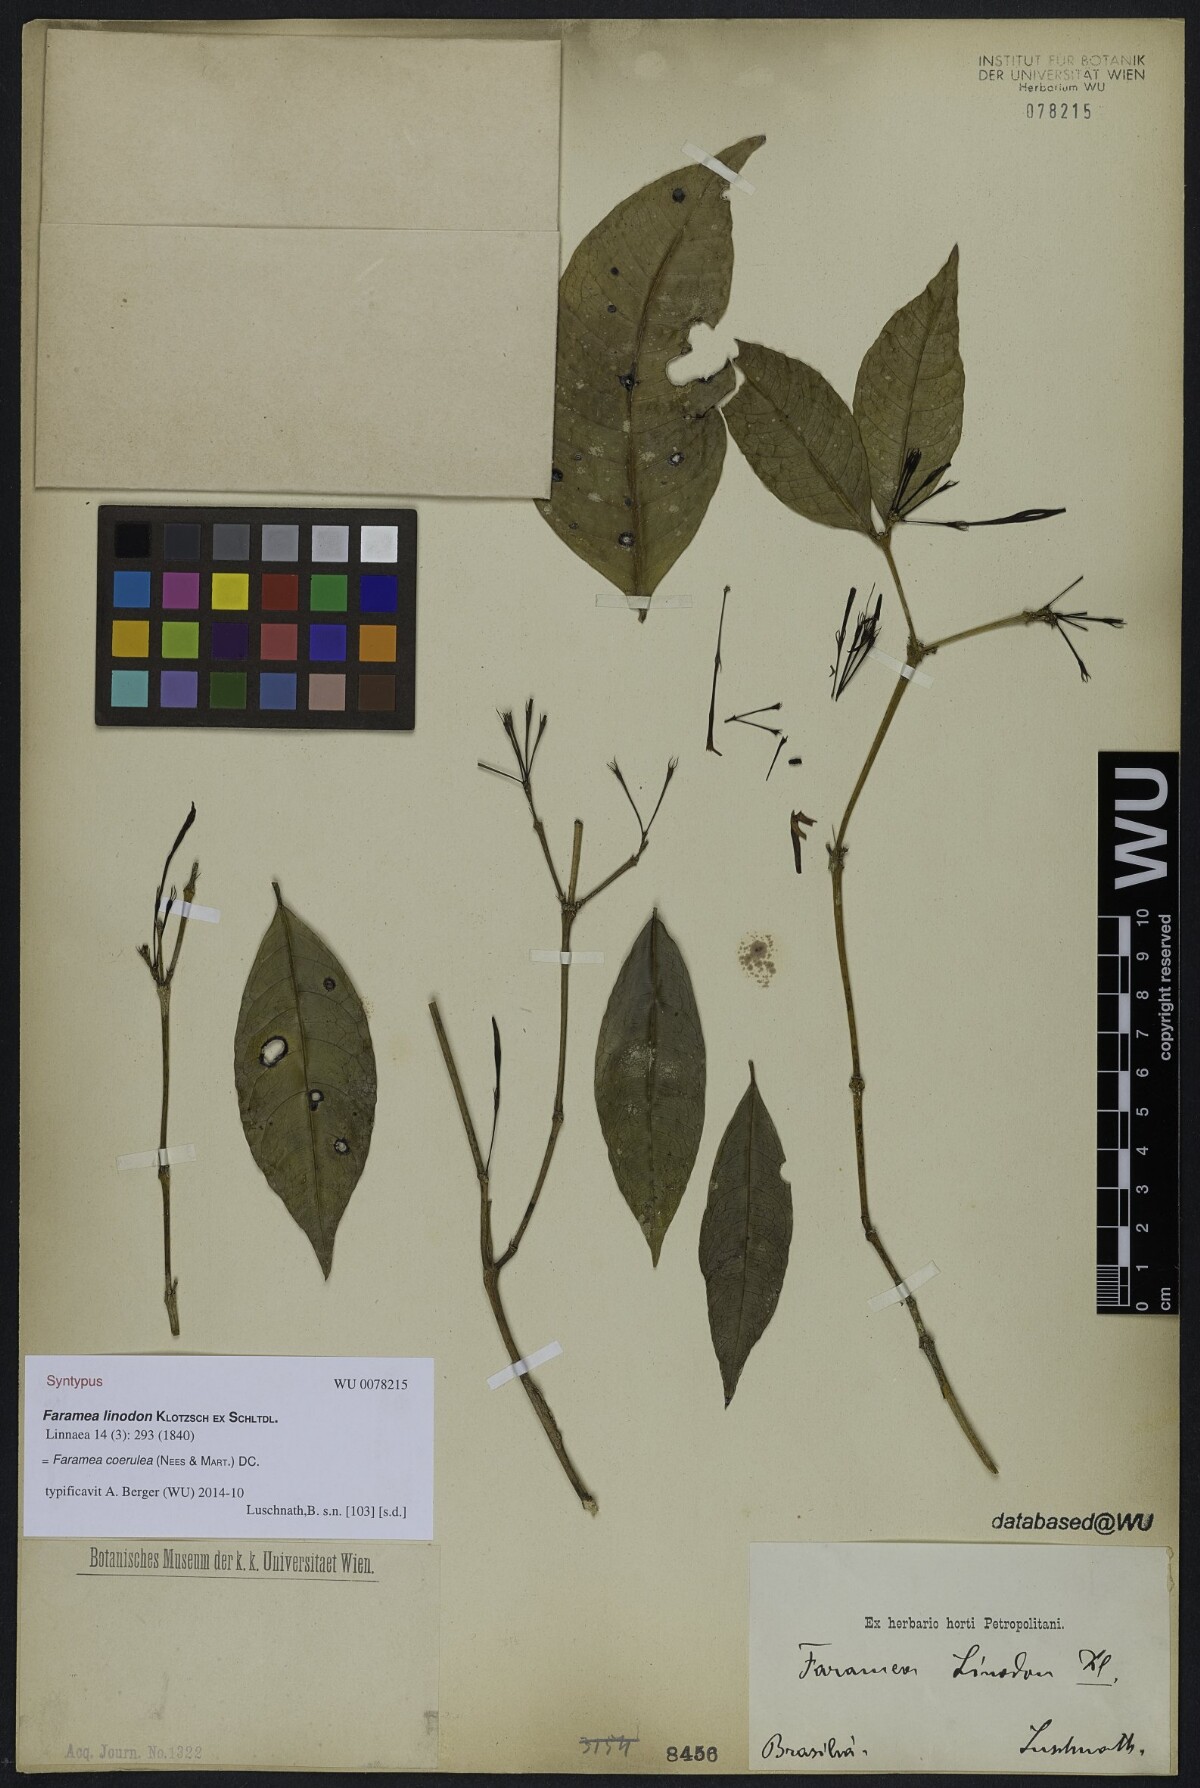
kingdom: Plantae
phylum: Tracheophyta
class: Magnoliopsida
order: Gentianales
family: Rubiaceae
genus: Faramea
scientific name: Faramea
